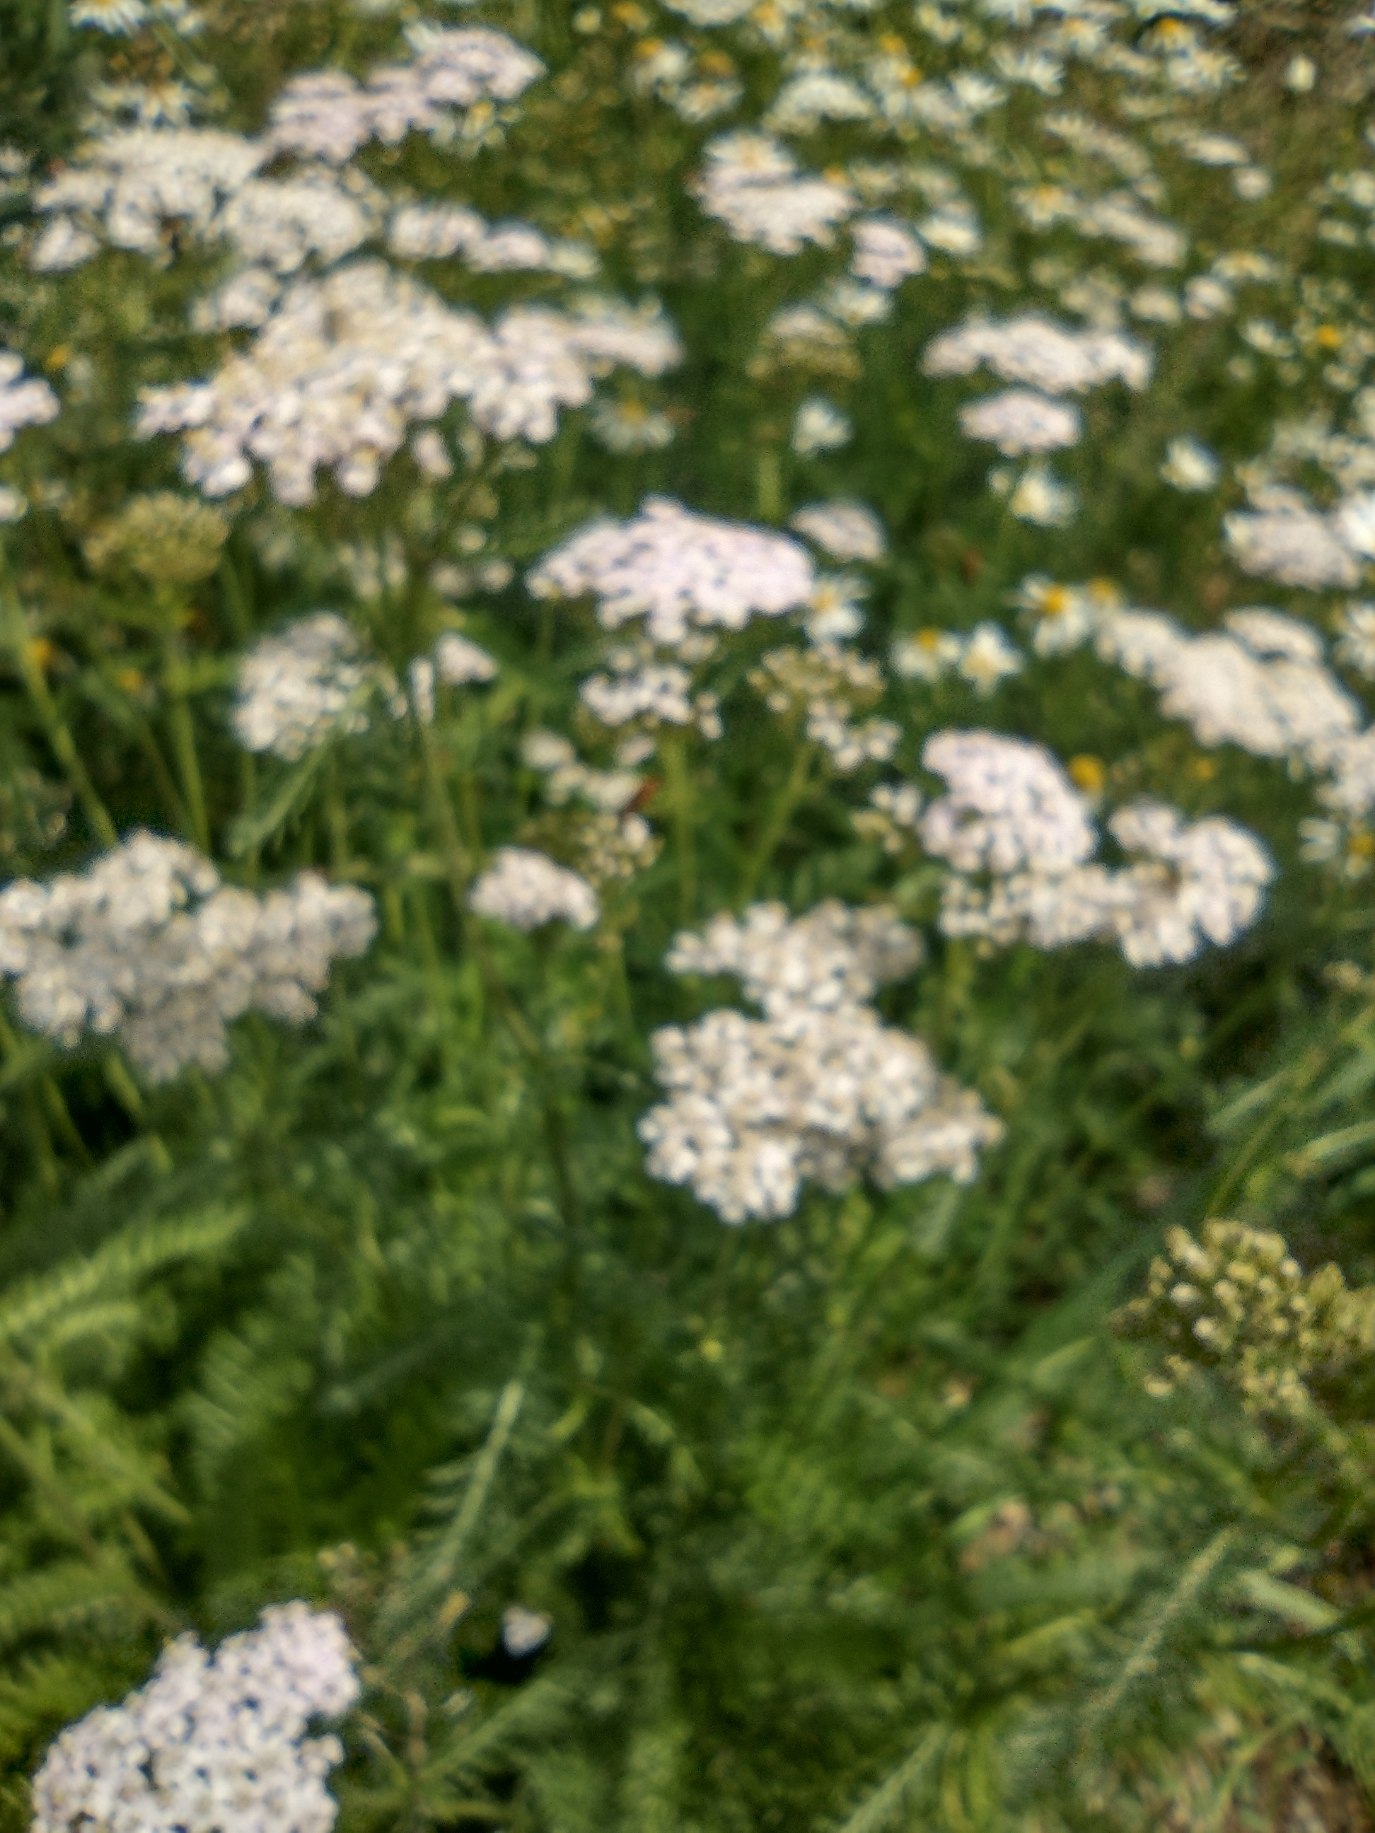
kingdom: Plantae
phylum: Tracheophyta
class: Magnoliopsida
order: Asterales
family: Asteraceae
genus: Achillea
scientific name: Achillea millefolium
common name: Almindelig røllike
